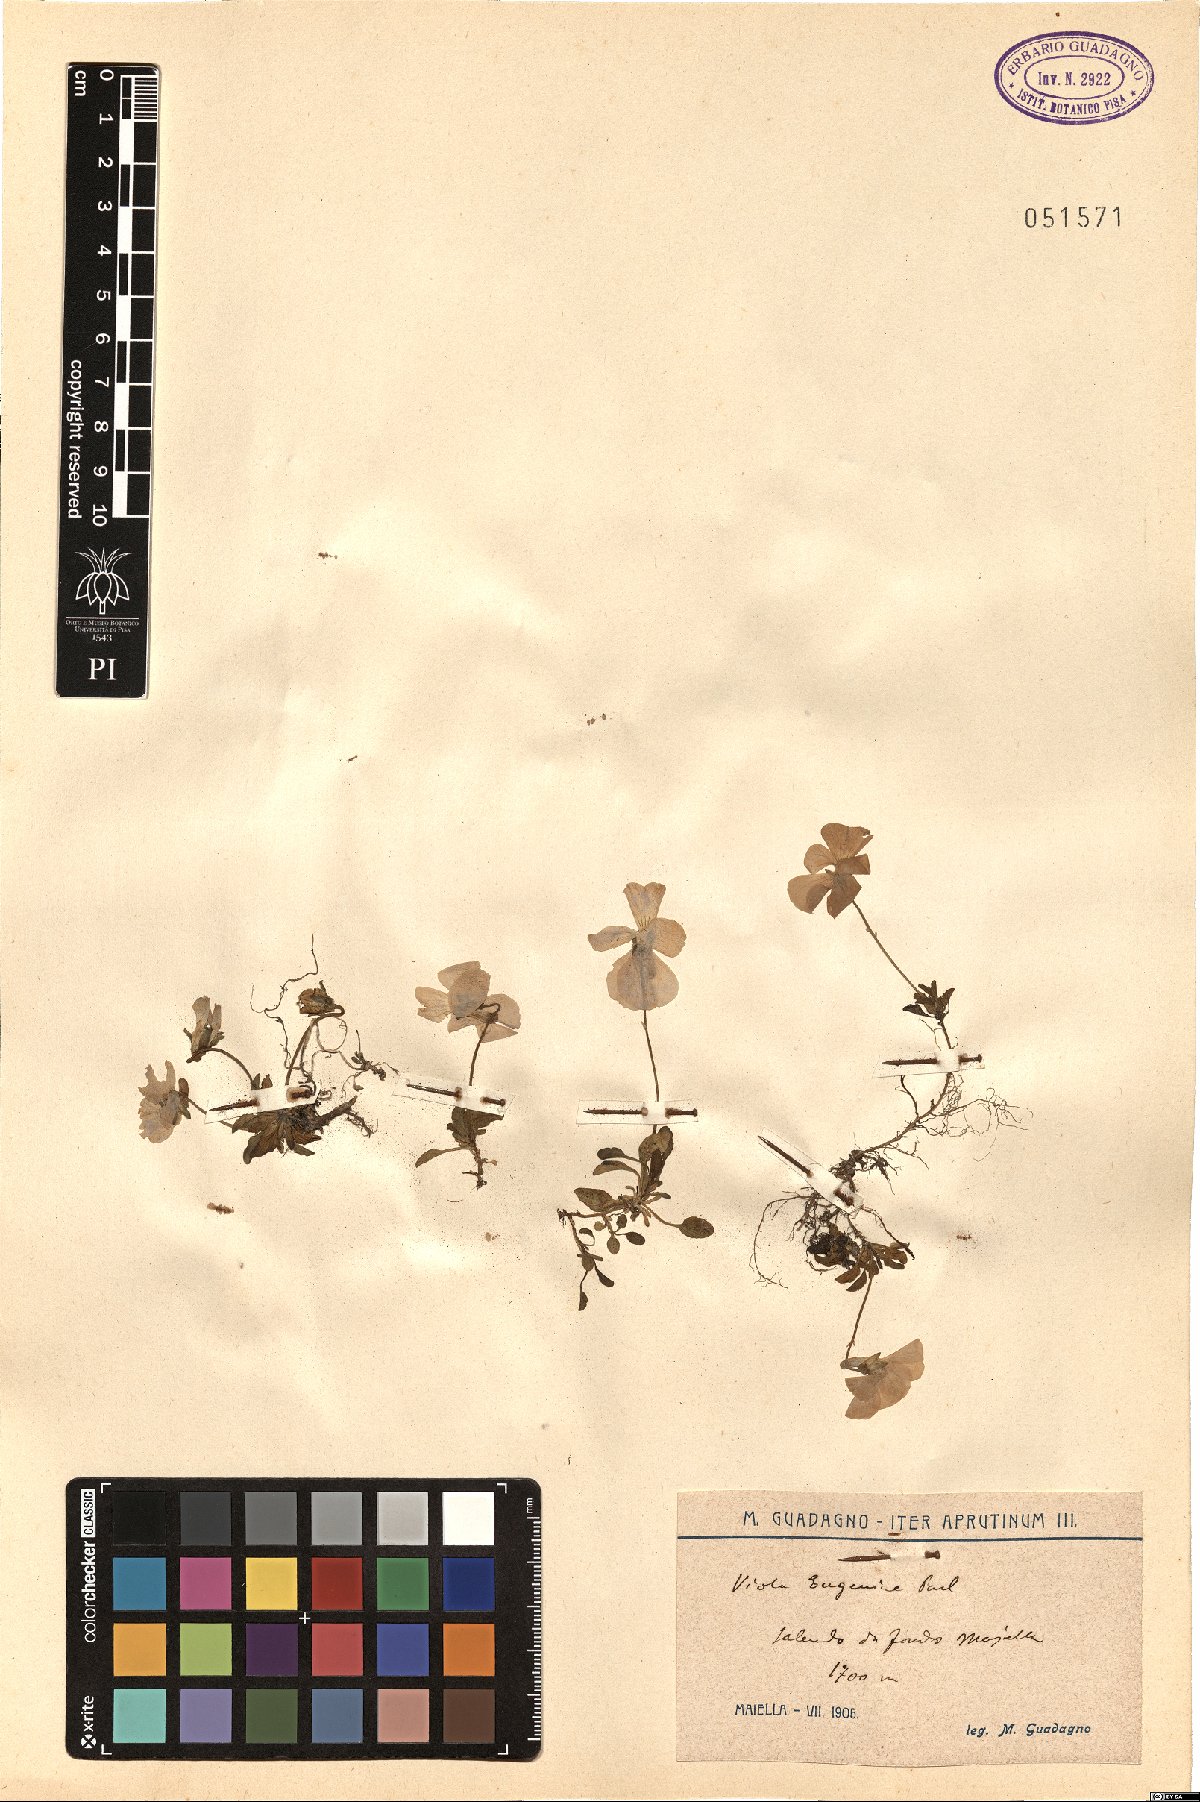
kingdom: Plantae
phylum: Tracheophyta
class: Magnoliopsida
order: Malpighiales
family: Violaceae
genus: Viola
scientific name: Viola eugeniae
